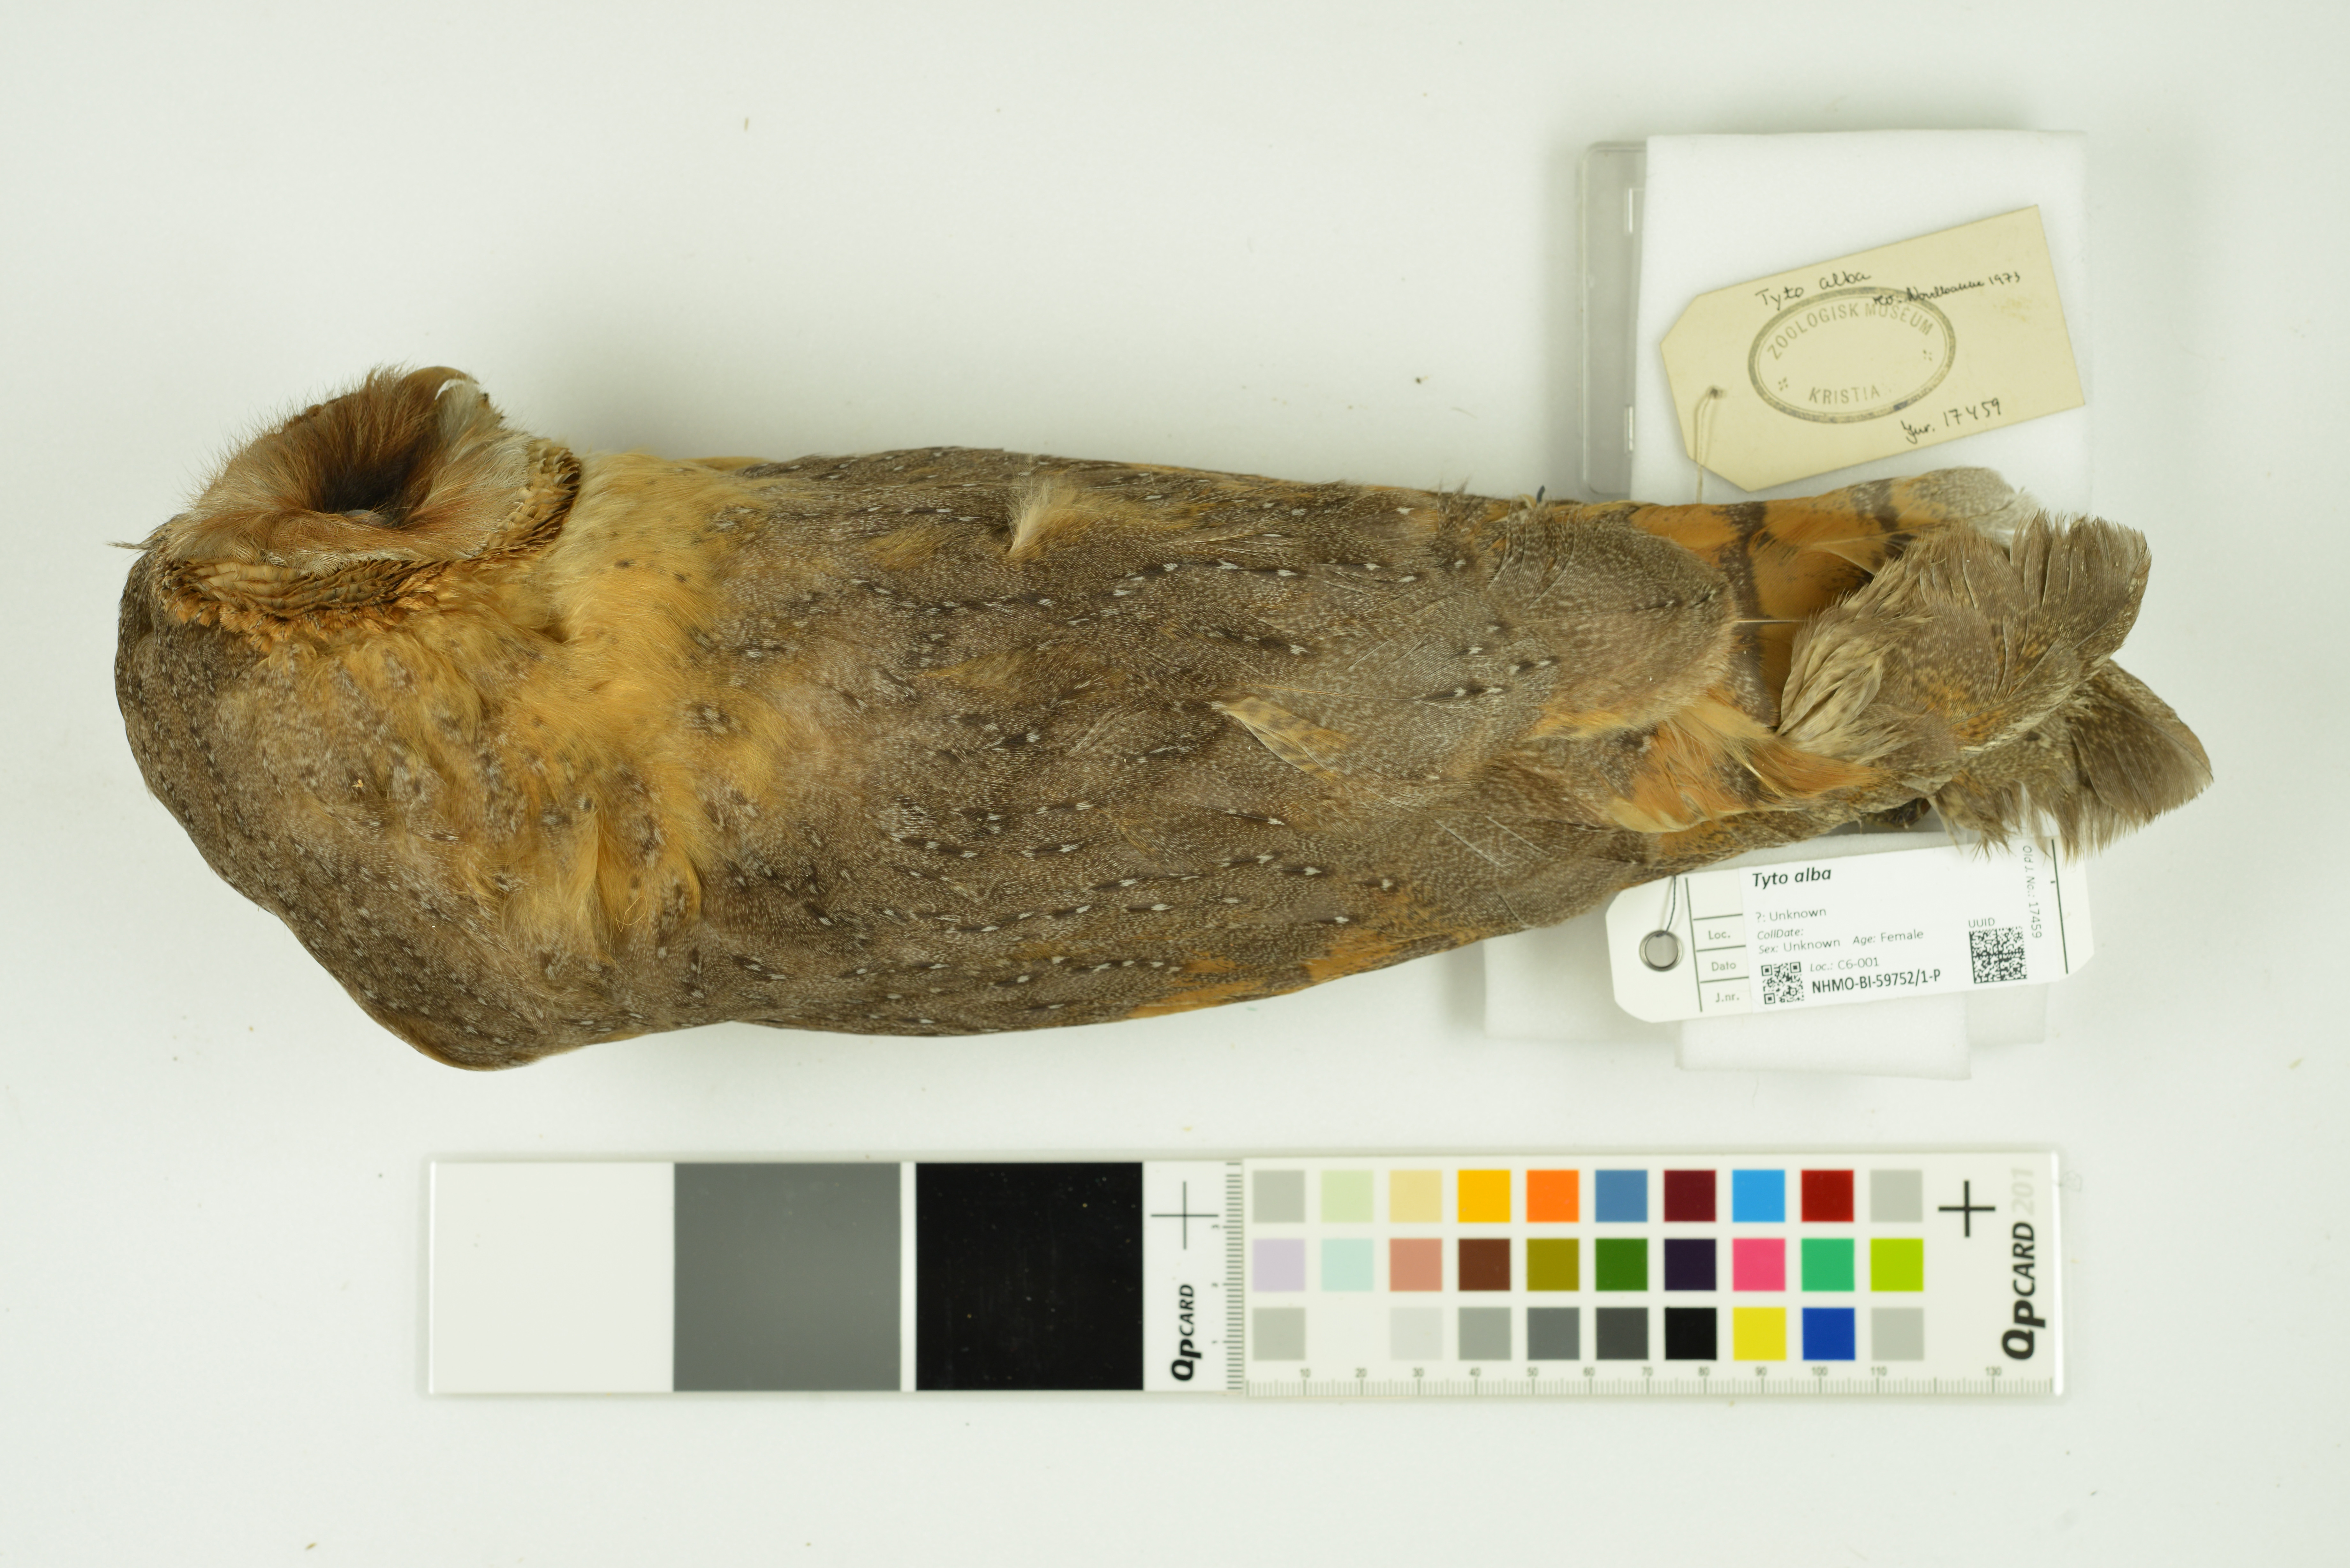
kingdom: Animalia
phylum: Chordata
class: Aves
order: Strigiformes
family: Tytonidae
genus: Tyto
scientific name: Tyto alba
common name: Barn owl
